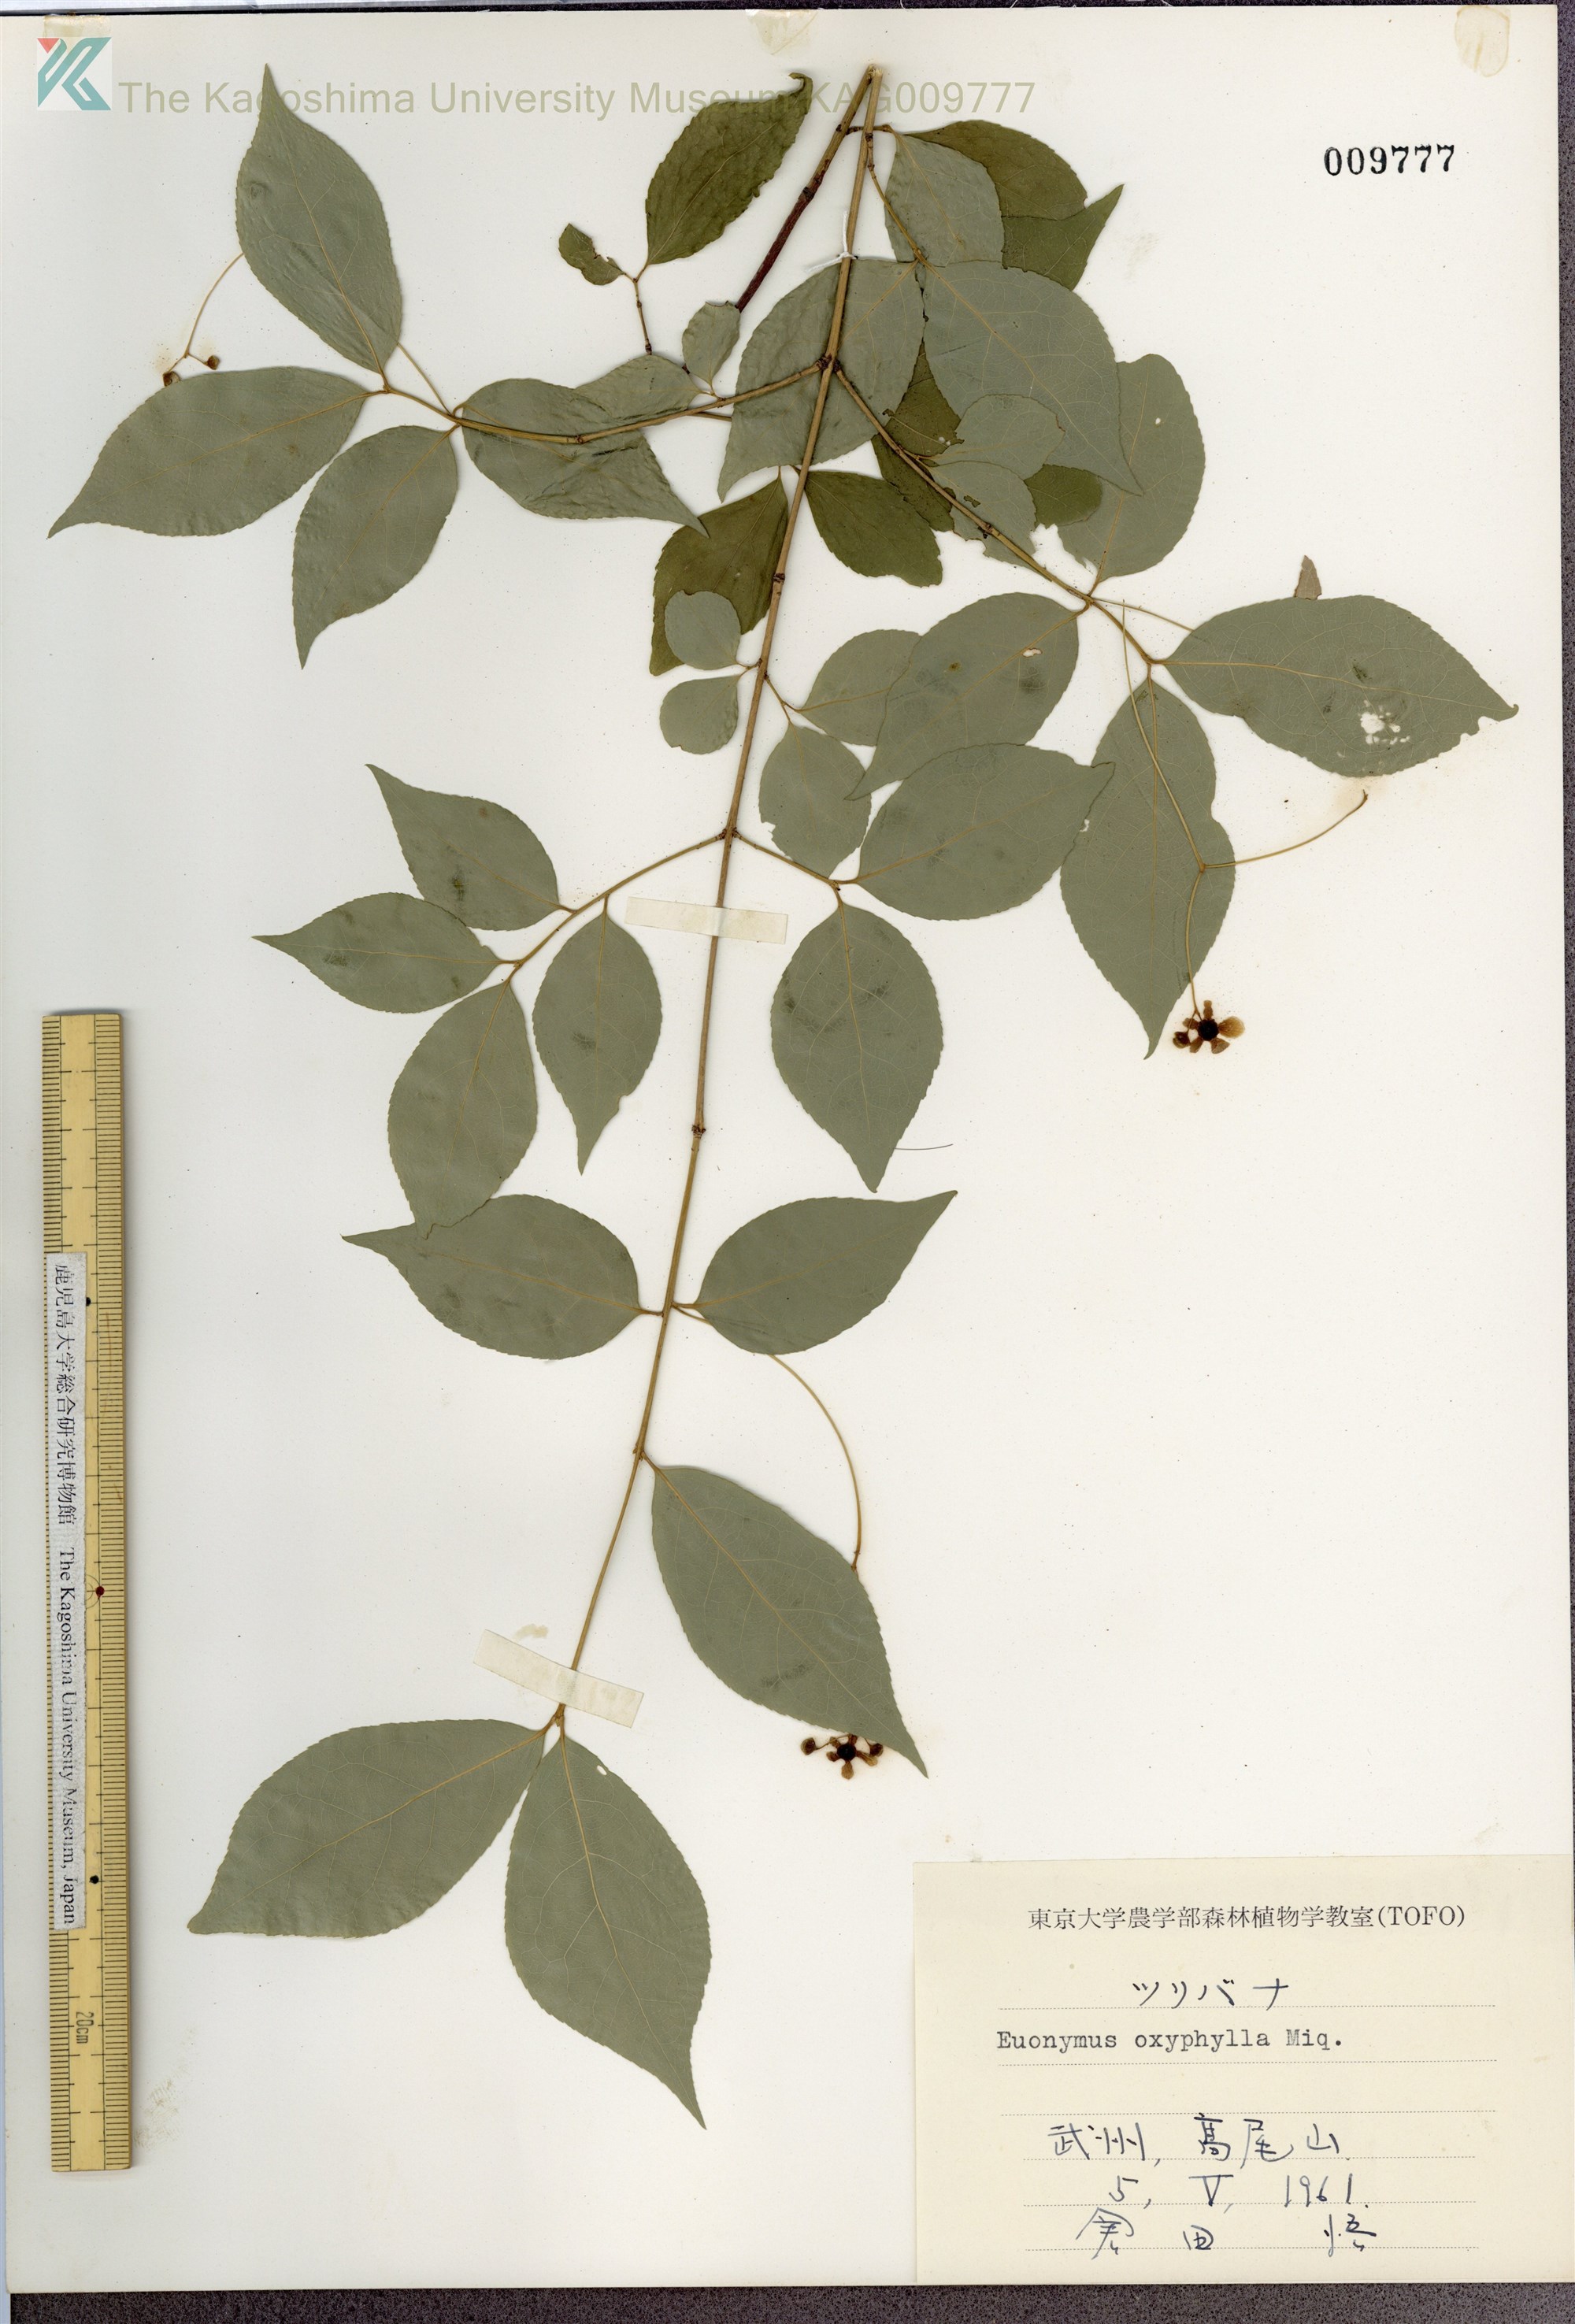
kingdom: Plantae
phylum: Tracheophyta
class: Magnoliopsida
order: Celastrales
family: Celastraceae
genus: Euonymus
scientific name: Euonymus oxyphyllus
